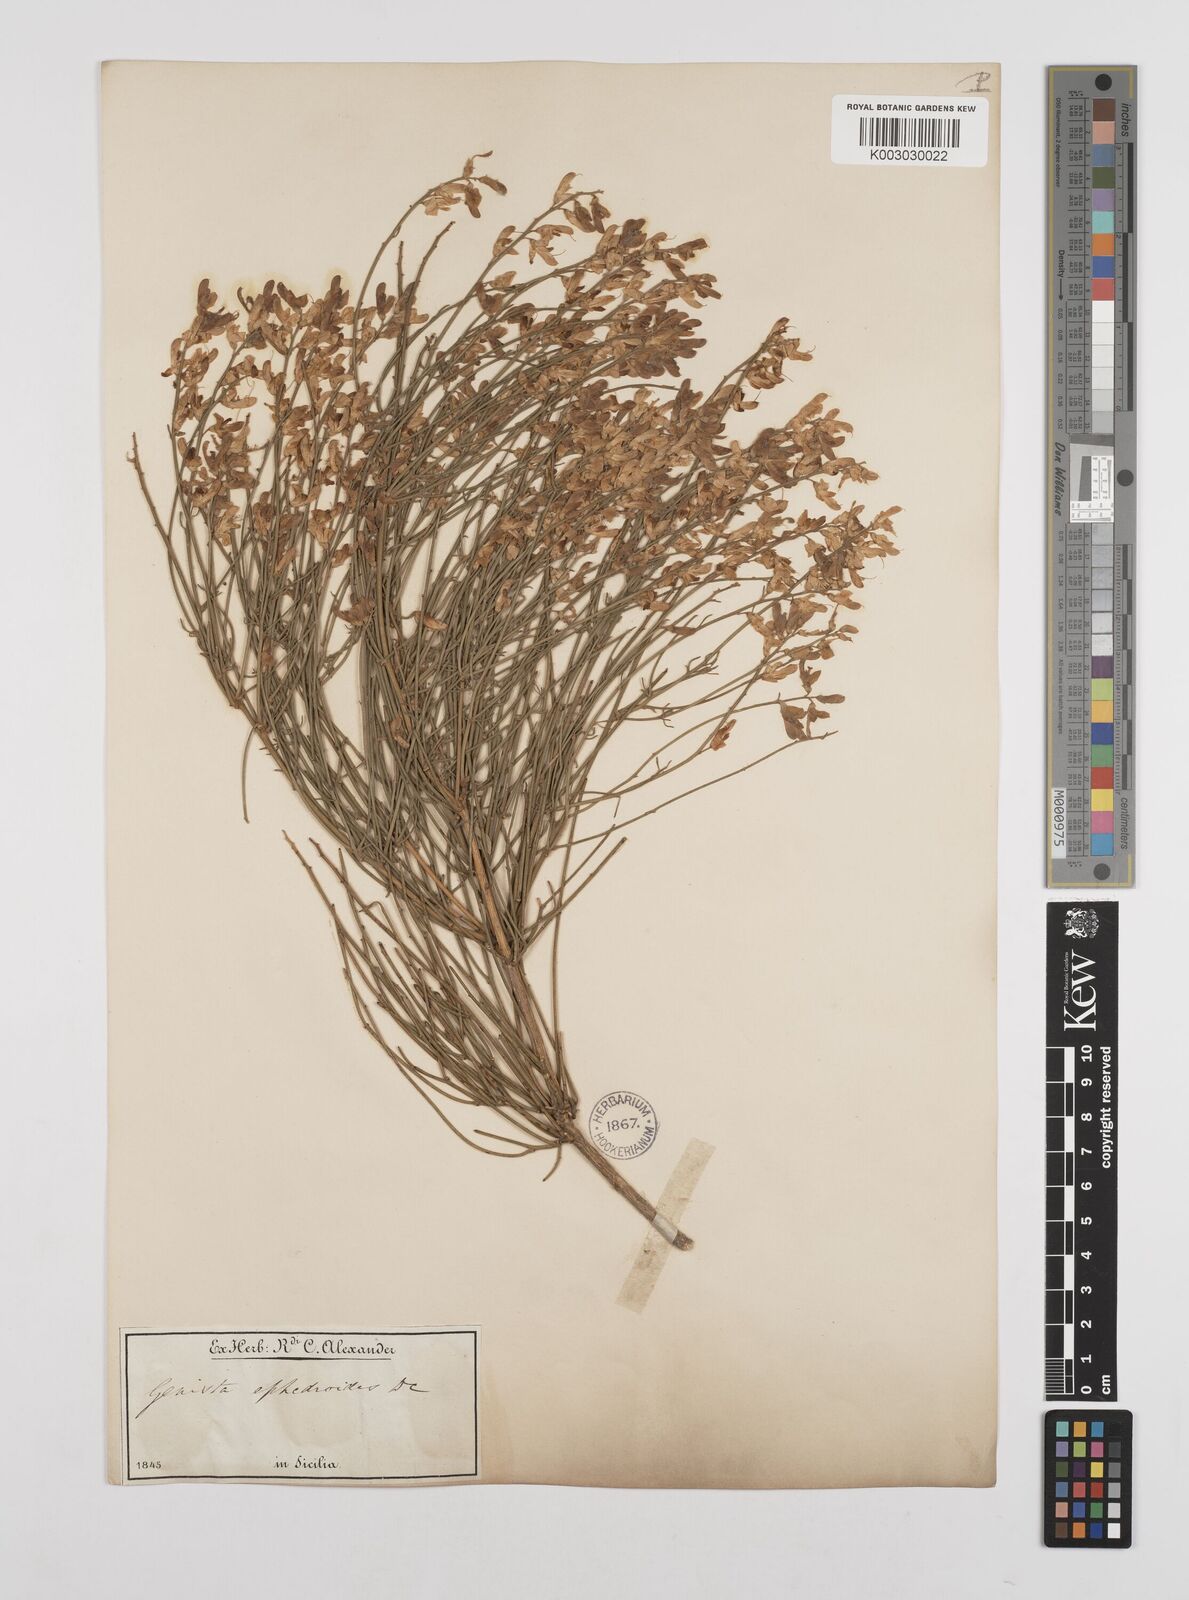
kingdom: Plantae
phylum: Tracheophyta
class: Magnoliopsida
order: Fabales
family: Fabaceae
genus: Genista
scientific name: Genista ephedroides
